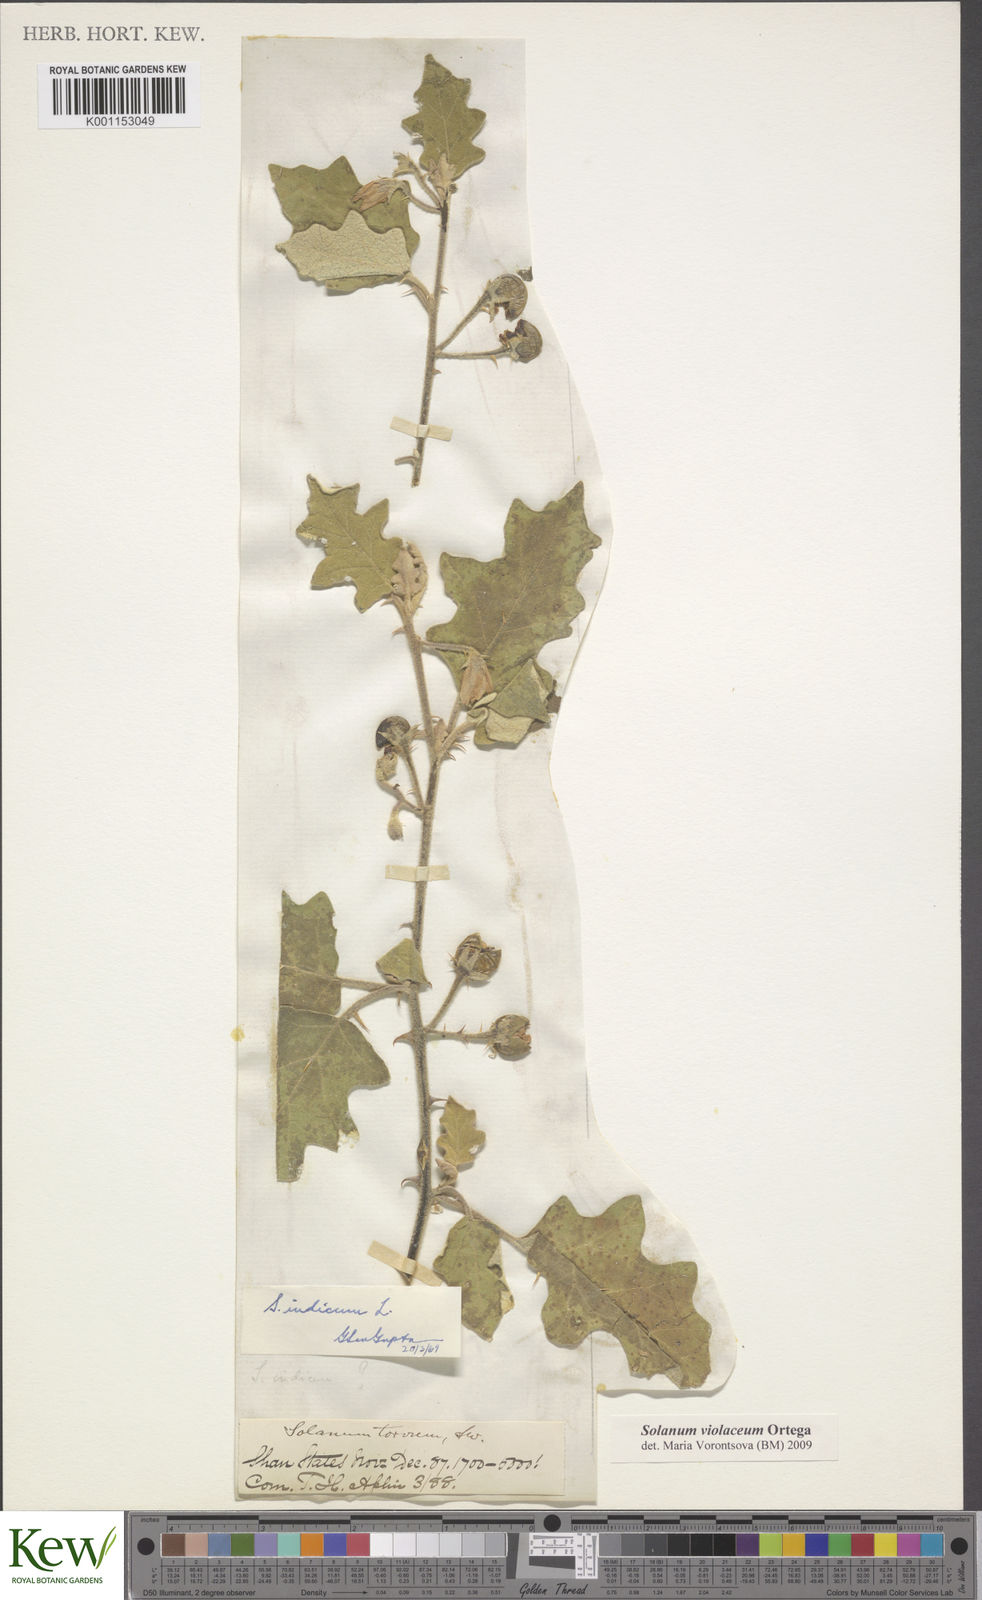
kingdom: Plantae
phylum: Tracheophyta
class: Magnoliopsida
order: Solanales
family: Solanaceae
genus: Solanum
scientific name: Solanum violaceum
